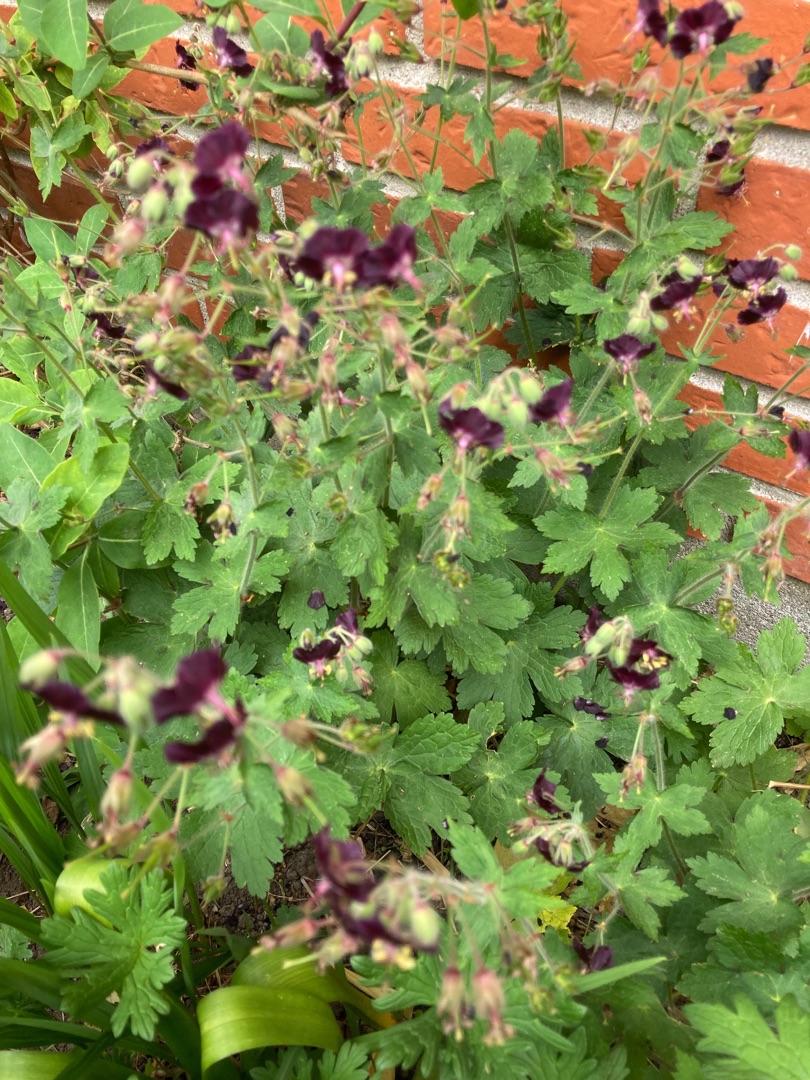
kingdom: Plantae
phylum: Tracheophyta
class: Magnoliopsida
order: Geraniales
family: Geraniaceae
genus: Geranium
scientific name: Geranium phaeum
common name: Bølgekronet storkenæb
